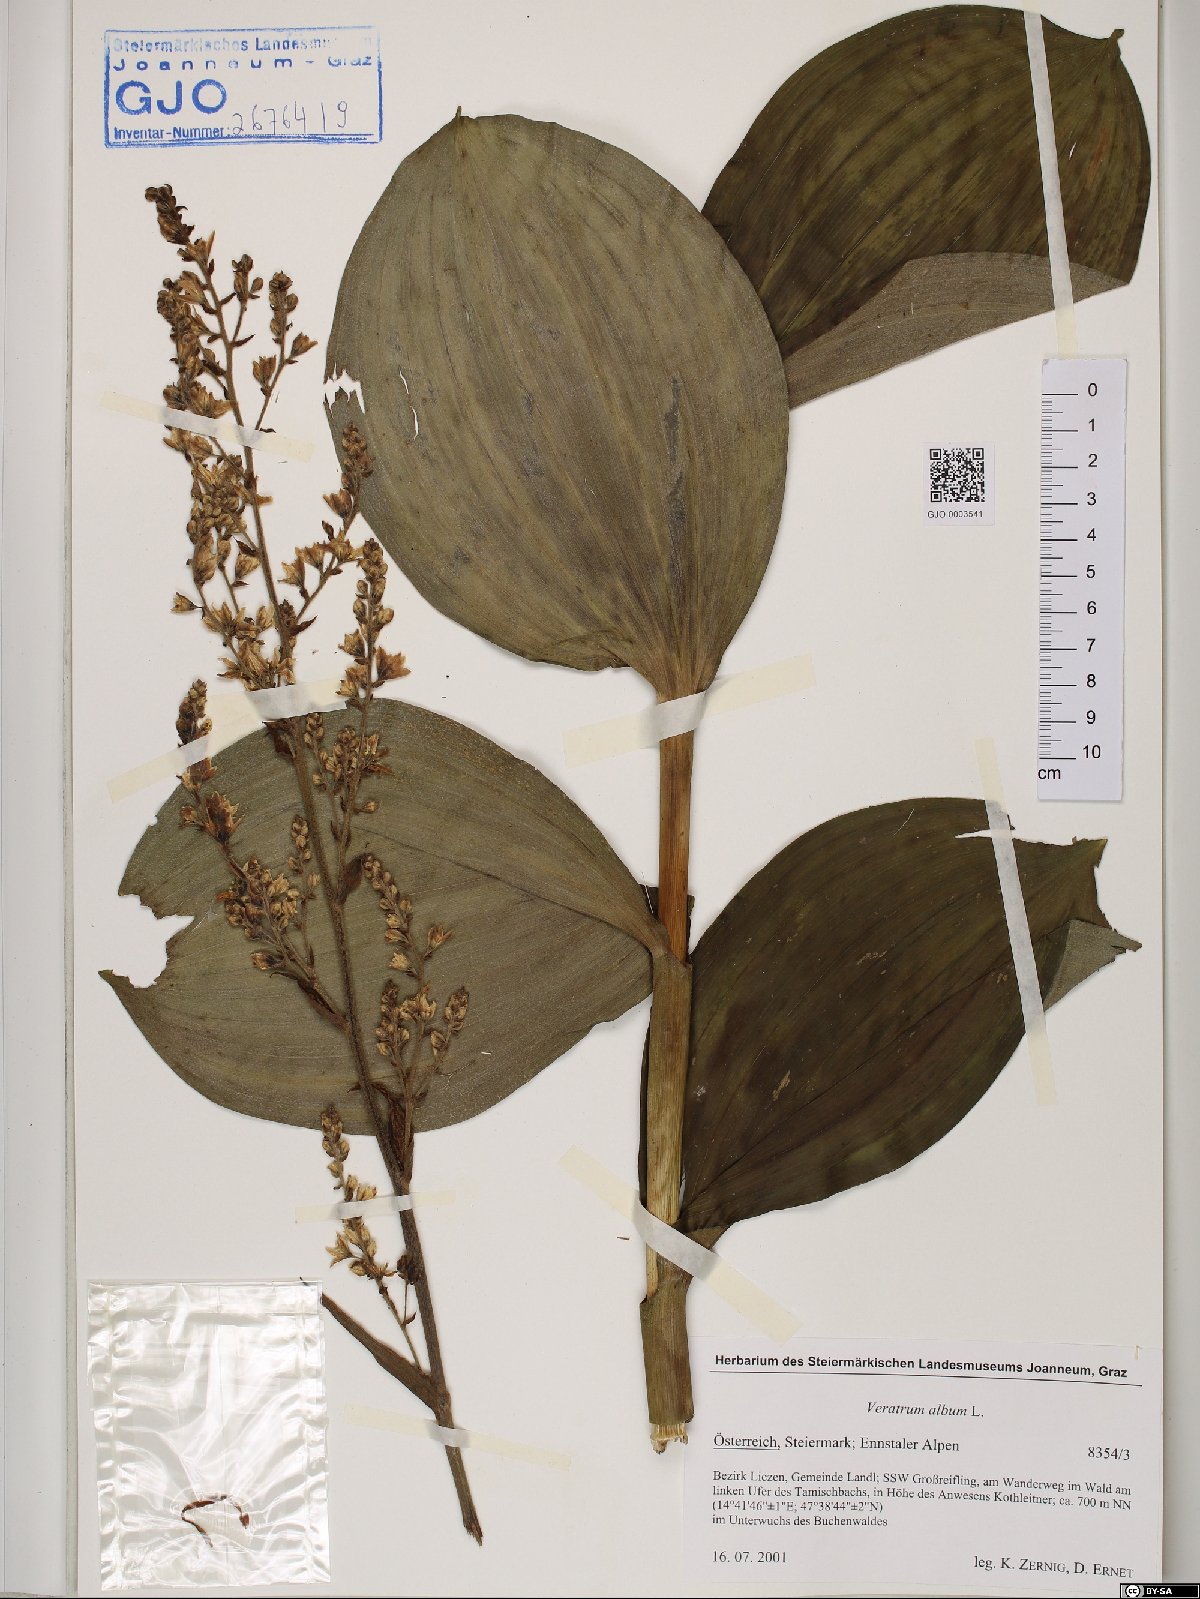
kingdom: Plantae
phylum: Tracheophyta
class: Liliopsida
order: Liliales
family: Melanthiaceae
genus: Veratrum
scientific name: Veratrum album
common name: White veratrum
